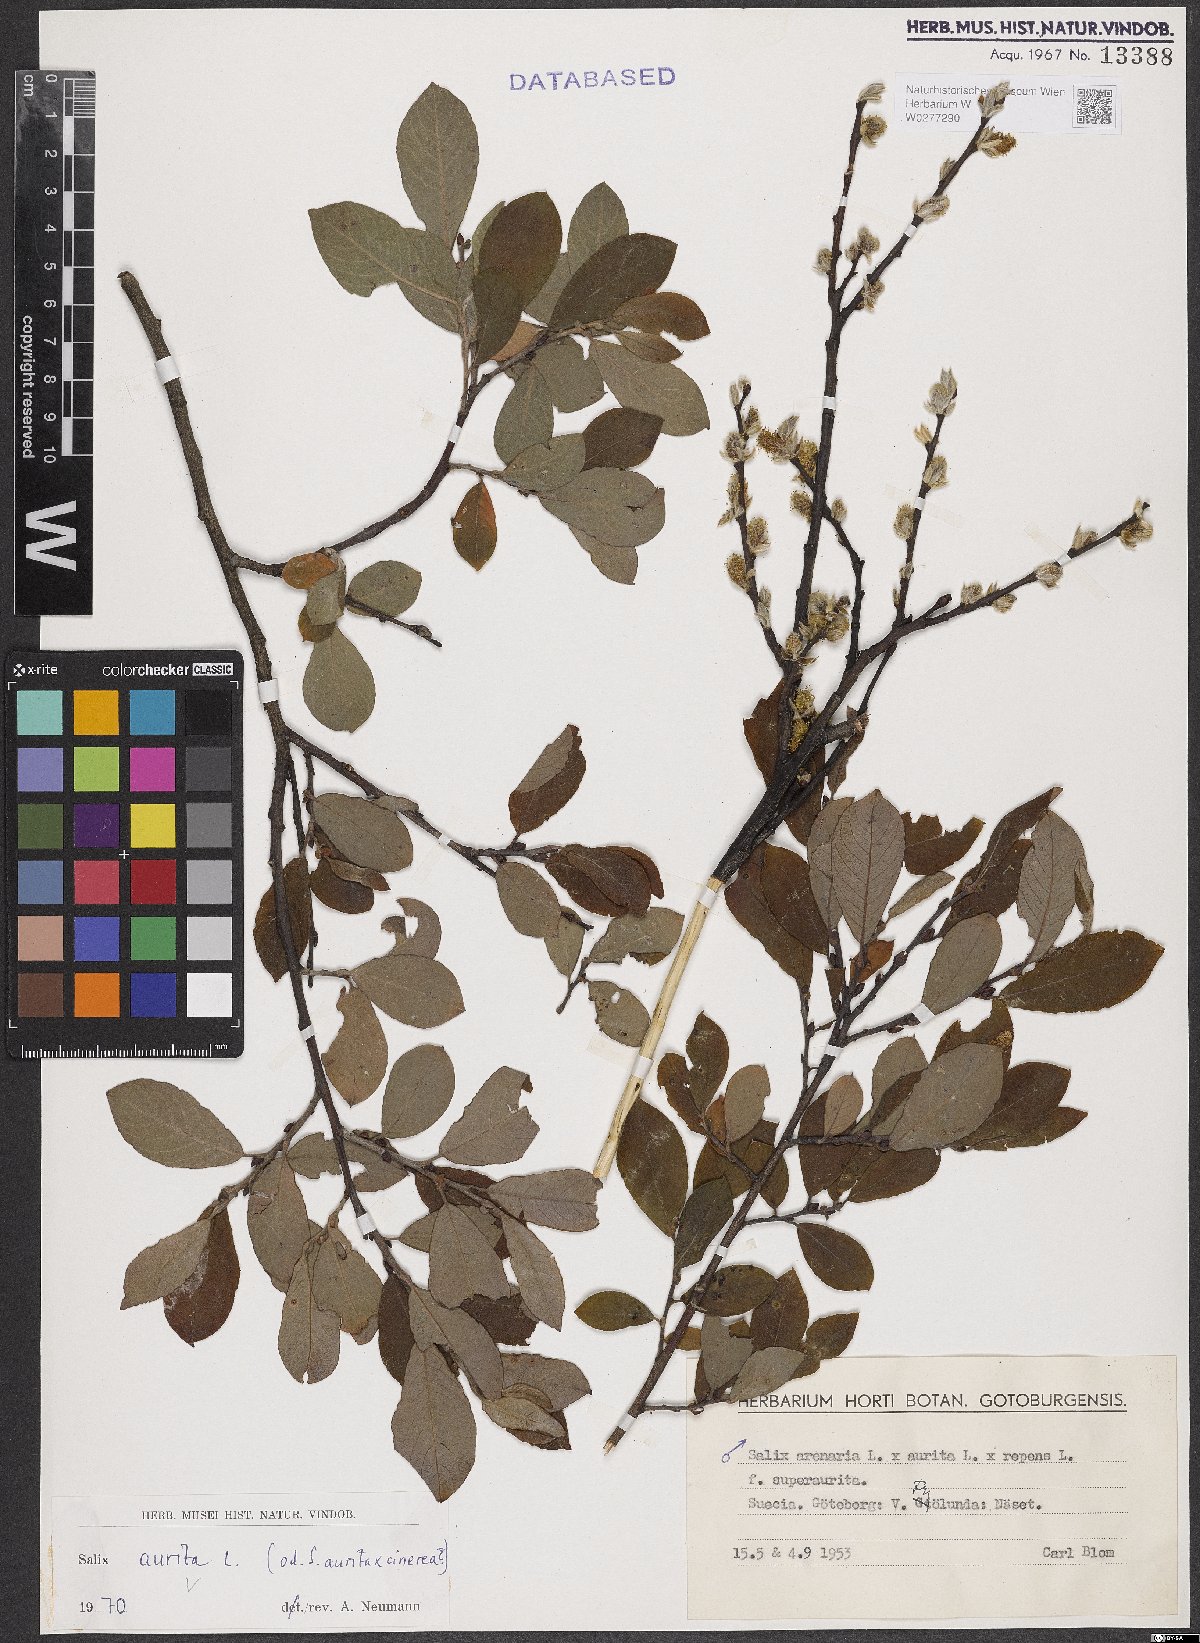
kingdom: Plantae
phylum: Tracheophyta
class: Magnoliopsida
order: Malpighiales
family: Salicaceae
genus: Salix
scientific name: Salix aurita
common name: Eared willow
